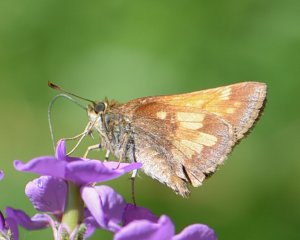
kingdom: Animalia
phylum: Arthropoda
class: Insecta
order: Lepidoptera
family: Hesperiidae
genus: Lon
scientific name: Lon hobomok
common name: Hobomok Skipper
